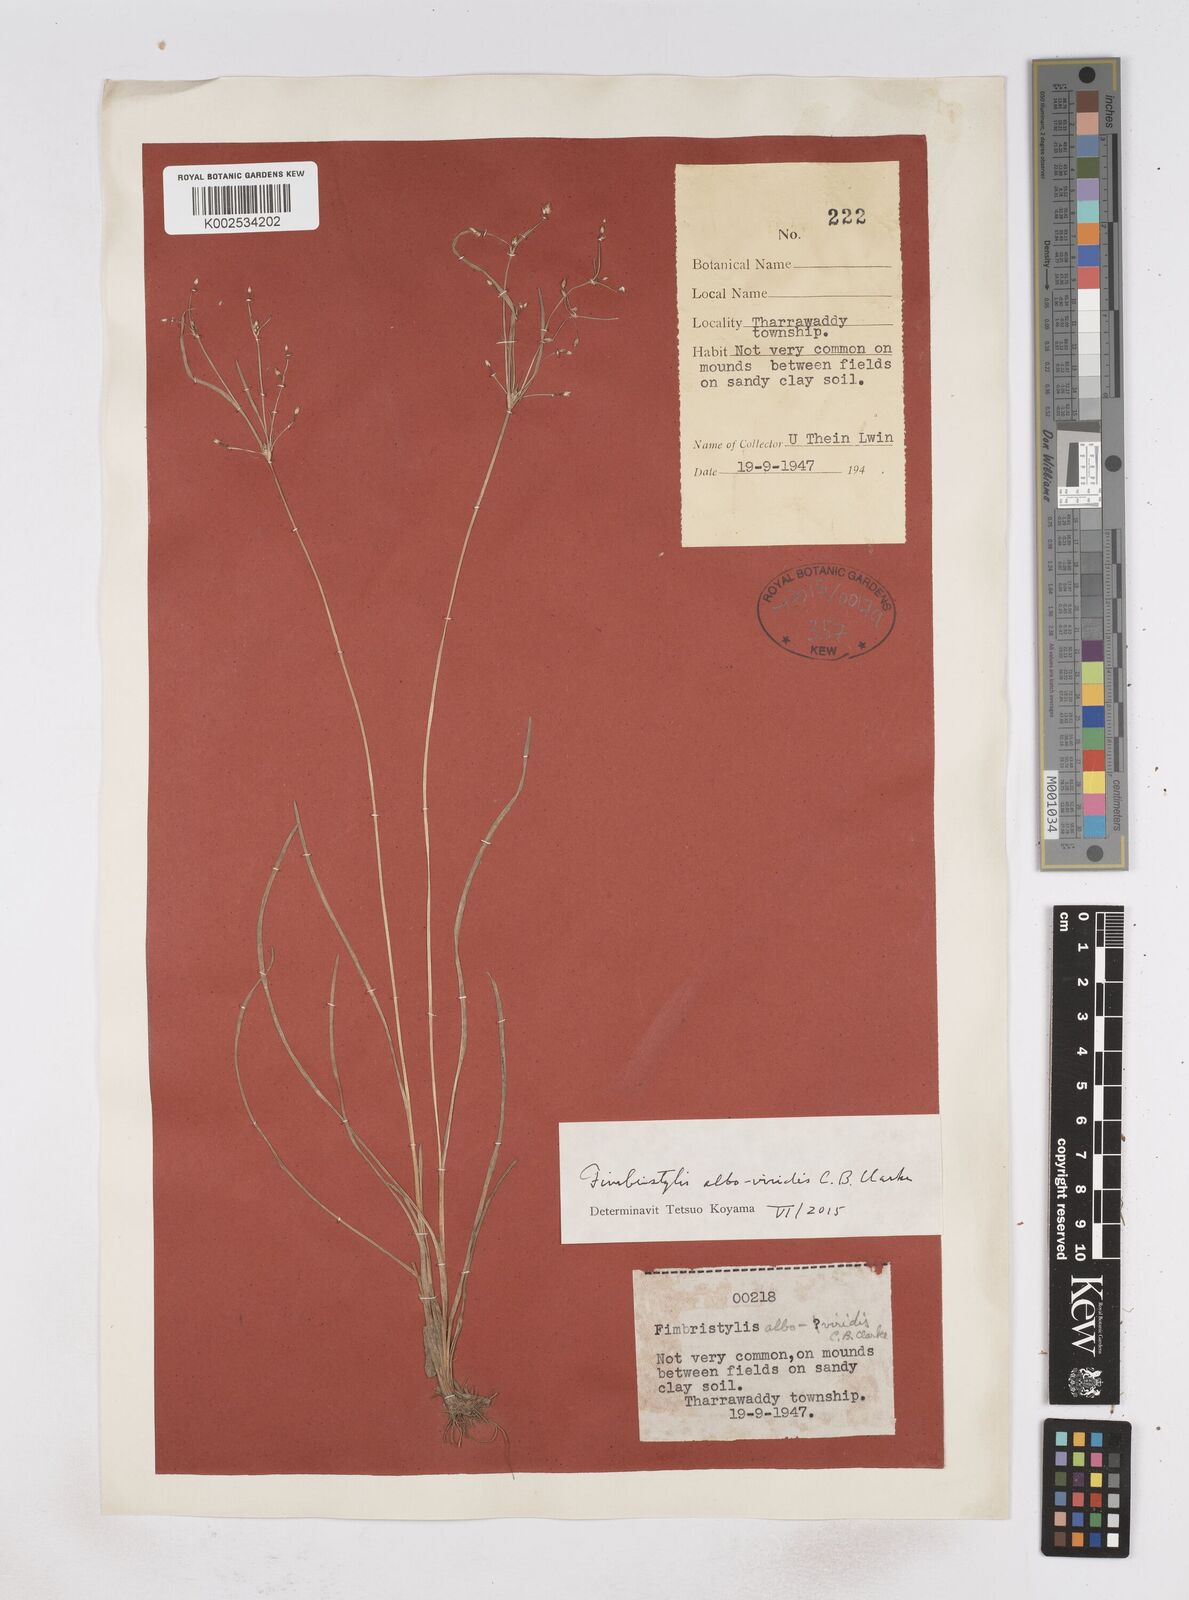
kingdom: Plantae
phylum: Tracheophyta
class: Liliopsida
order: Poales
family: Cyperaceae
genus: Fimbristylis
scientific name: Fimbristylis alboviridis
